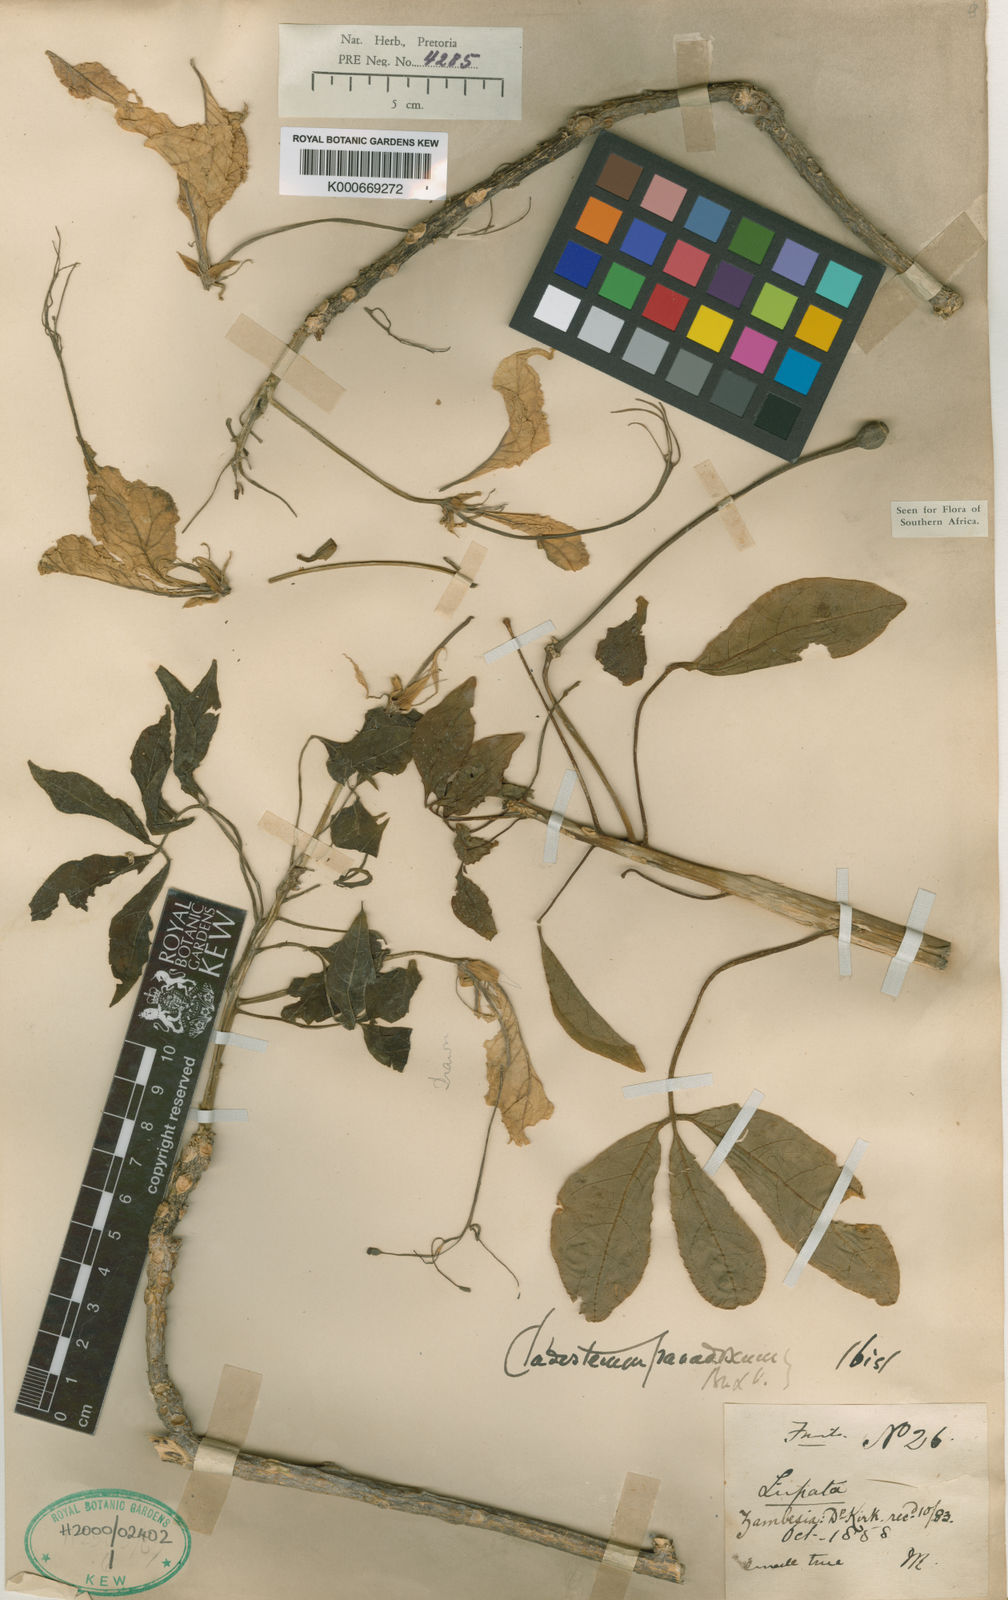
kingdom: Plantae
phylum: Tracheophyta
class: Magnoliopsida
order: Brassicales
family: Capparaceae
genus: Cladostemon
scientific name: Cladostemon kirkii
